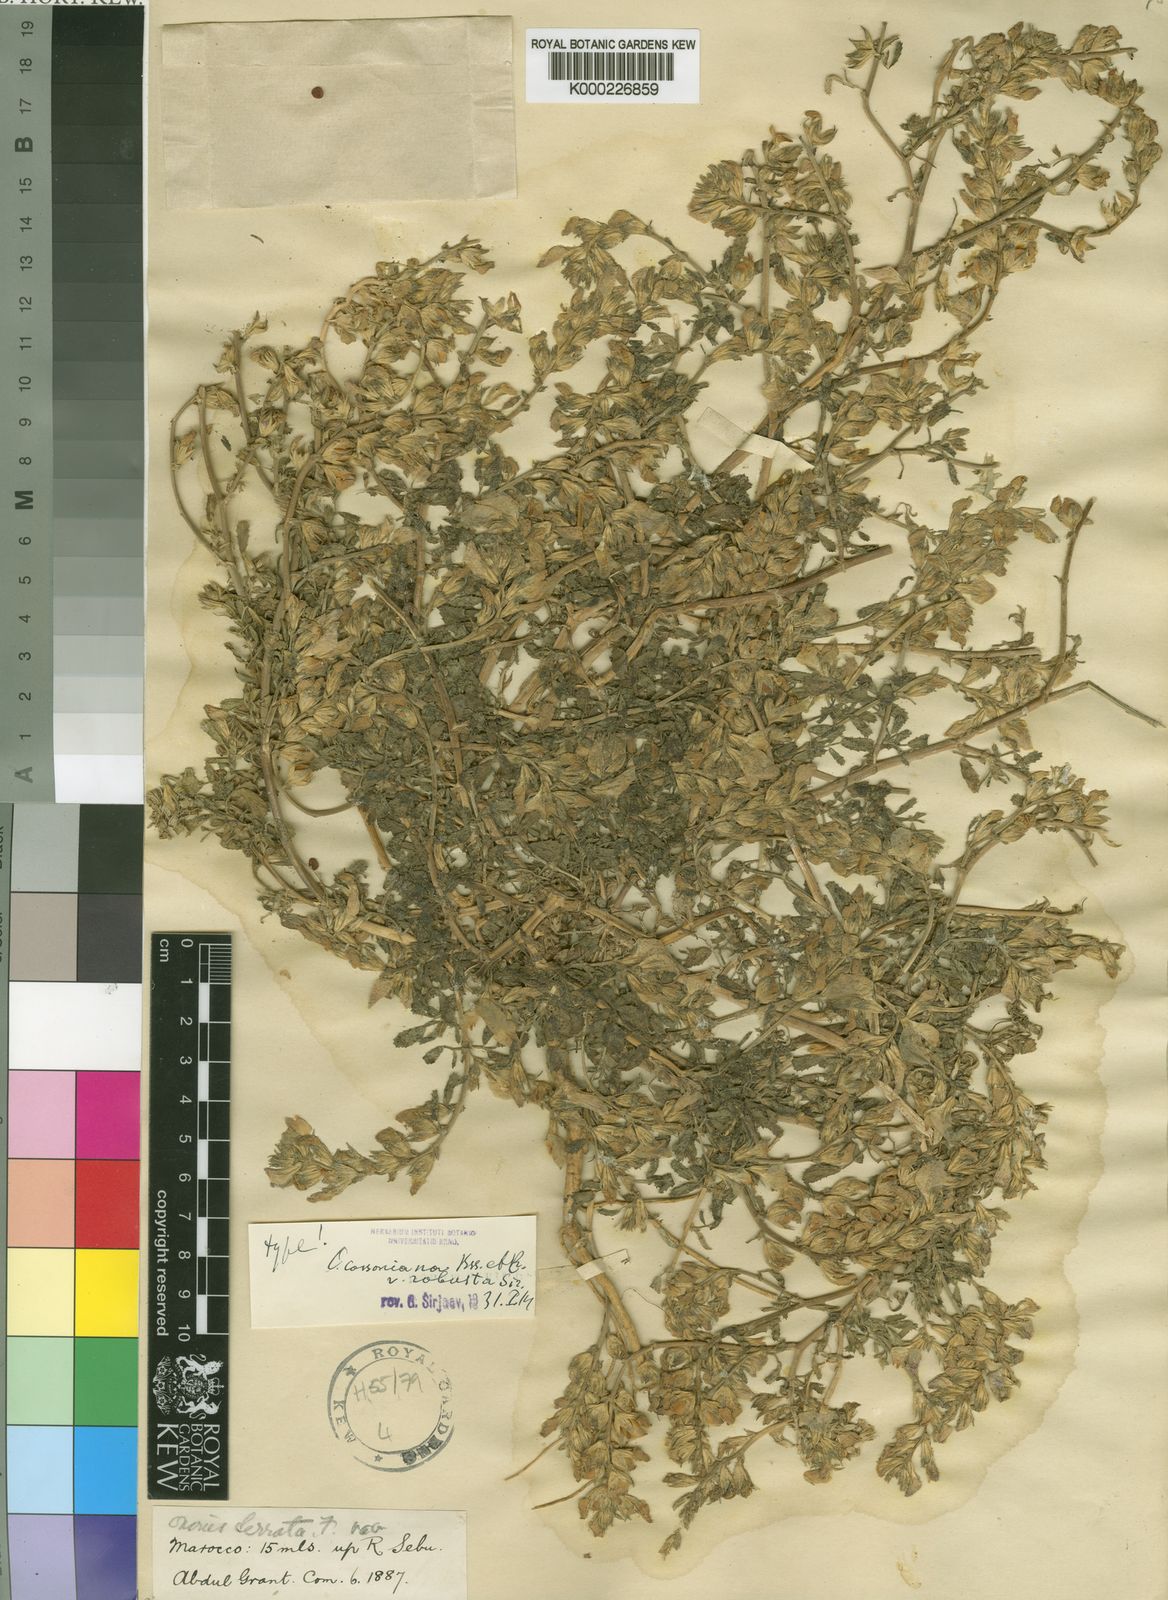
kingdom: Plantae
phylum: Tracheophyta
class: Magnoliopsida
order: Fabales
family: Fabaceae
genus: Ononis
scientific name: Ononis cossoniana
